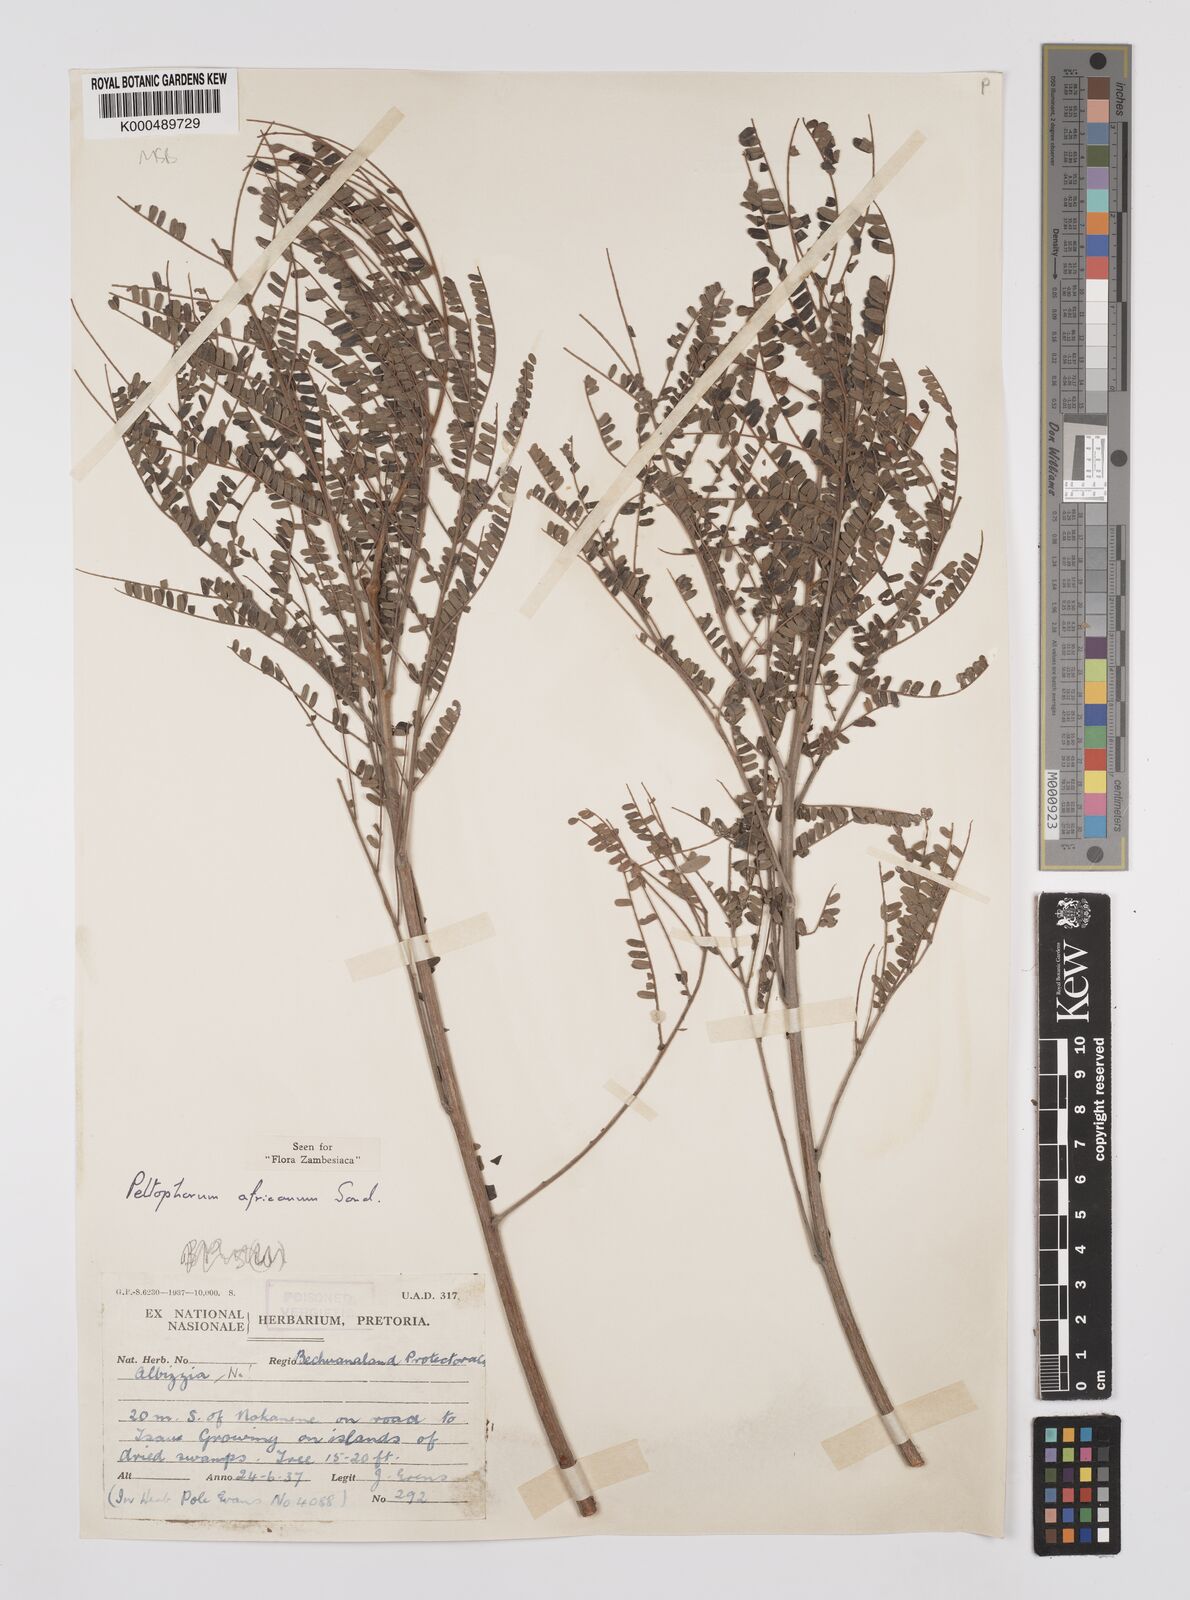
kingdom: Plantae
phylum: Tracheophyta
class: Magnoliopsida
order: Fabales
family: Fabaceae
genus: Peltophorum
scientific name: Peltophorum africanum
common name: African black wattle
